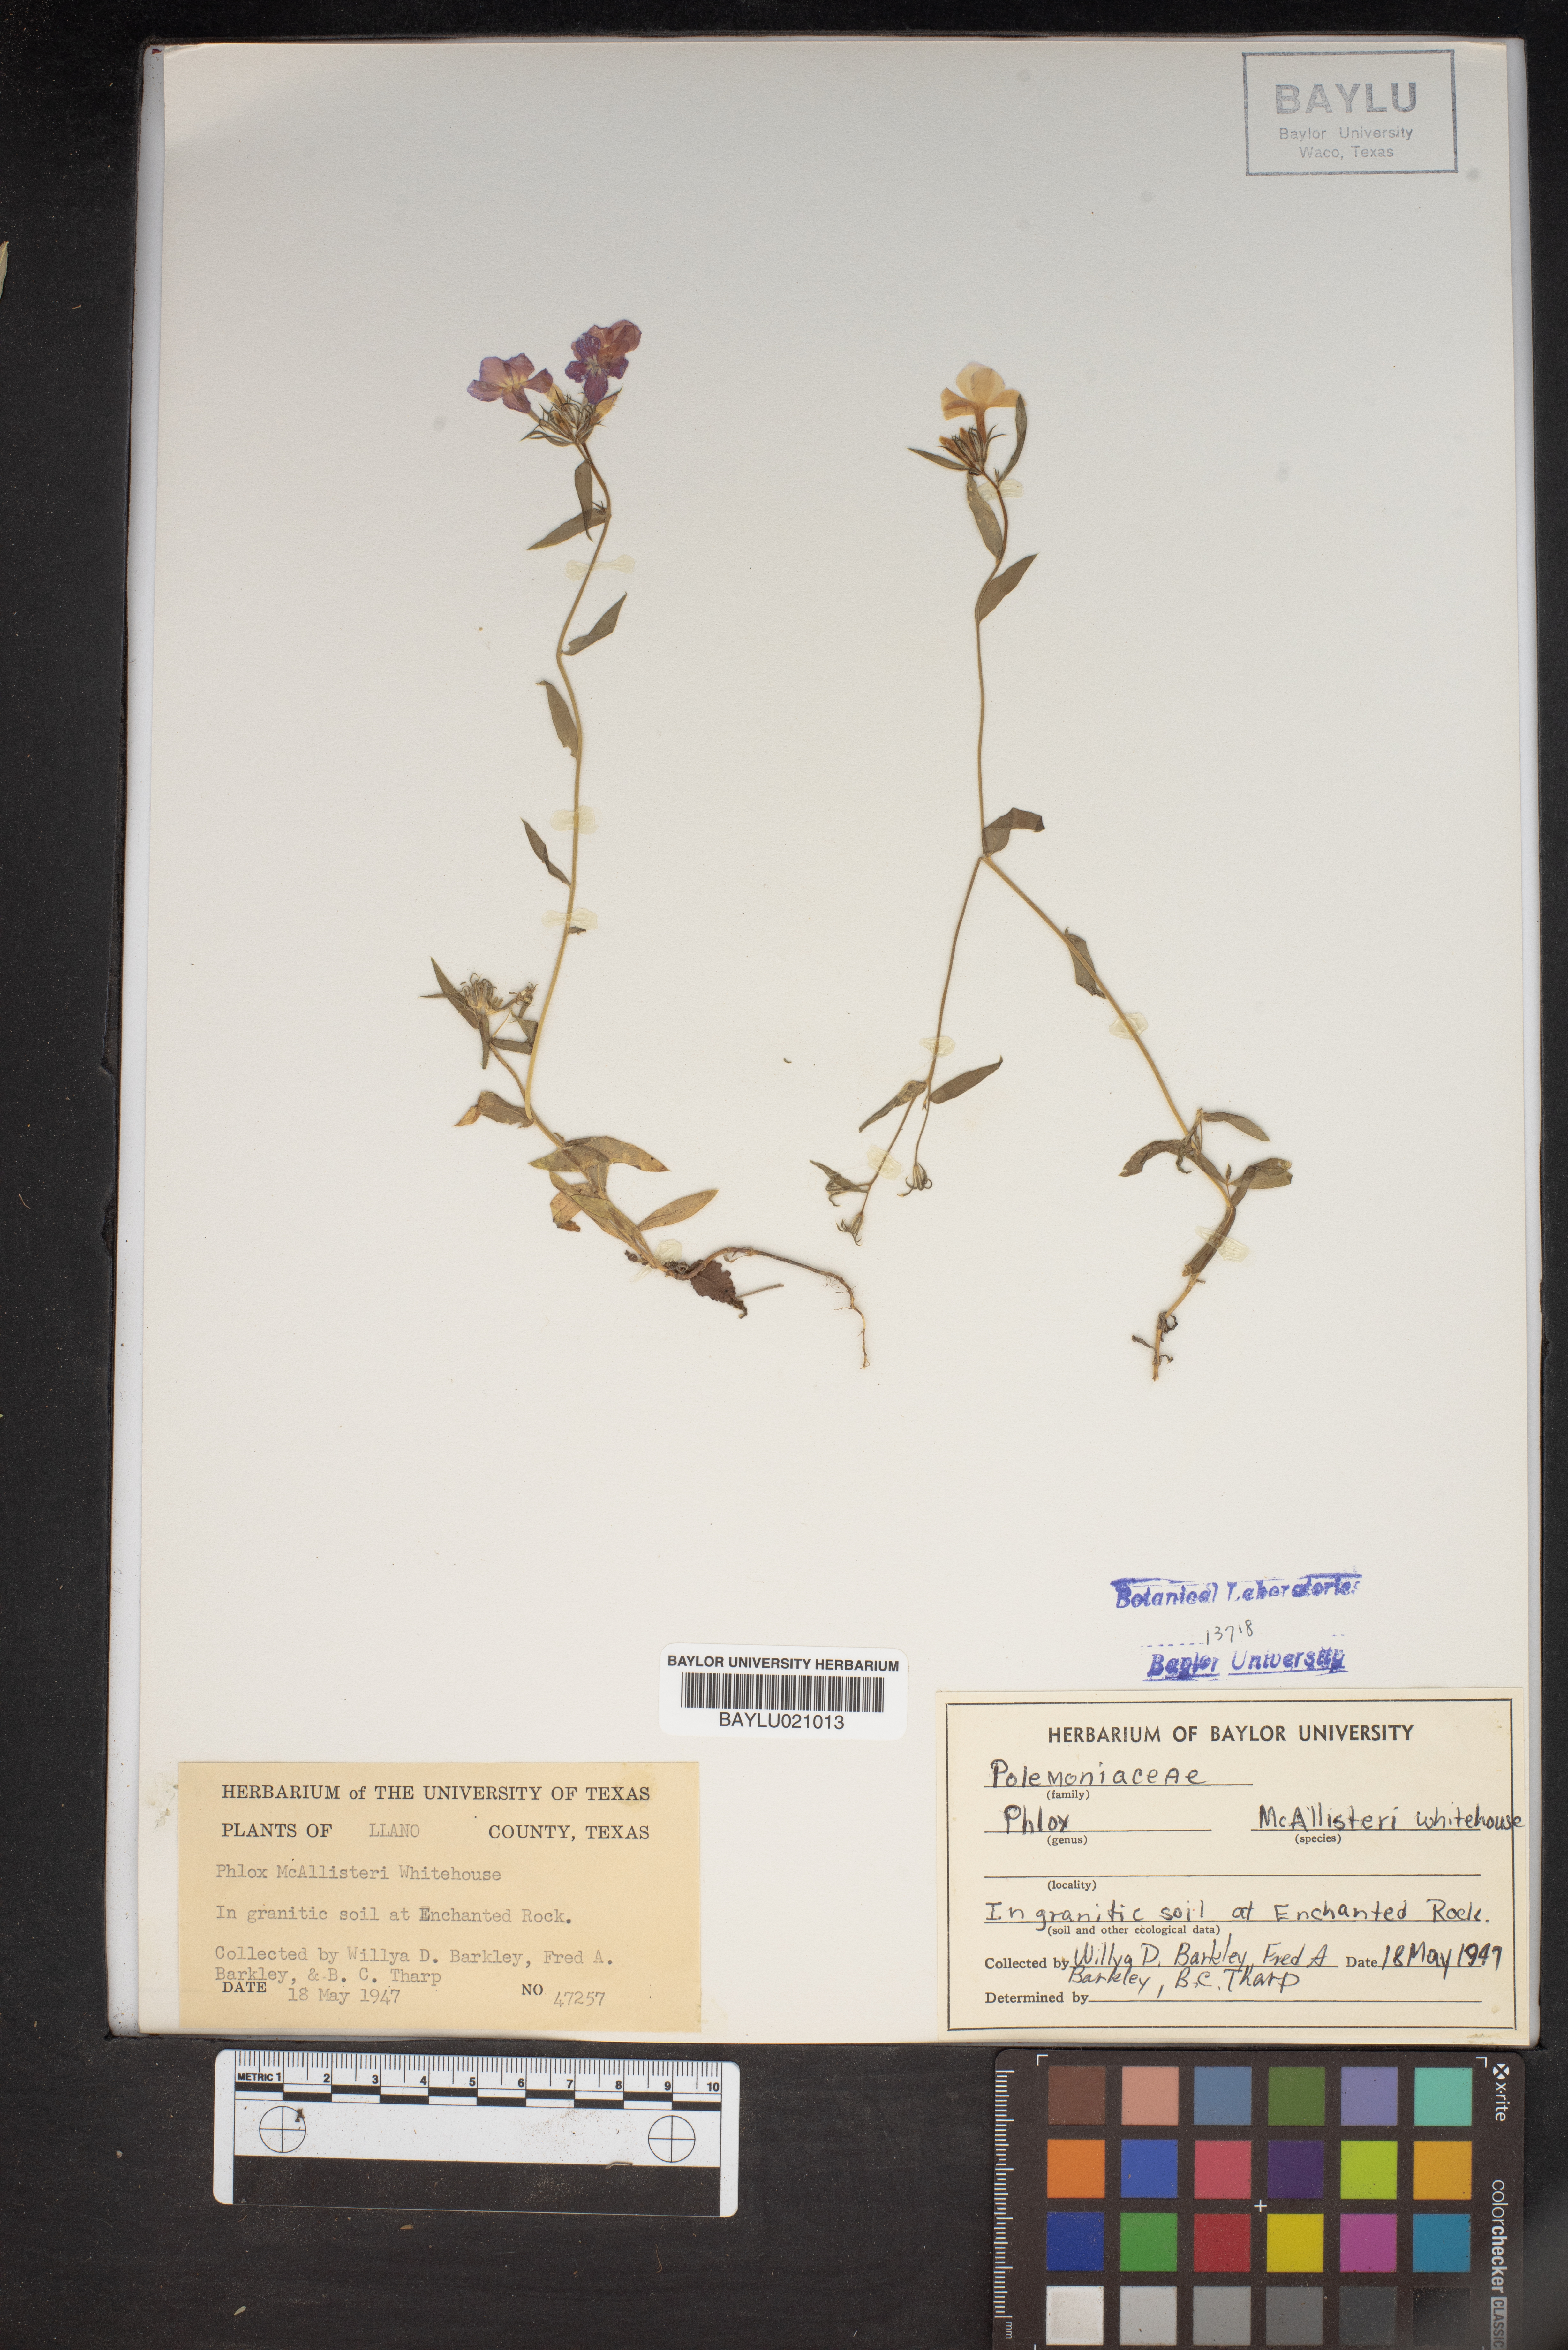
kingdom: Plantae
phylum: Tracheophyta
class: Magnoliopsida
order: Ericales
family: Polemoniaceae
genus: Phlox
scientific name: Phlox drummondii
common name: Drummond's phlox
